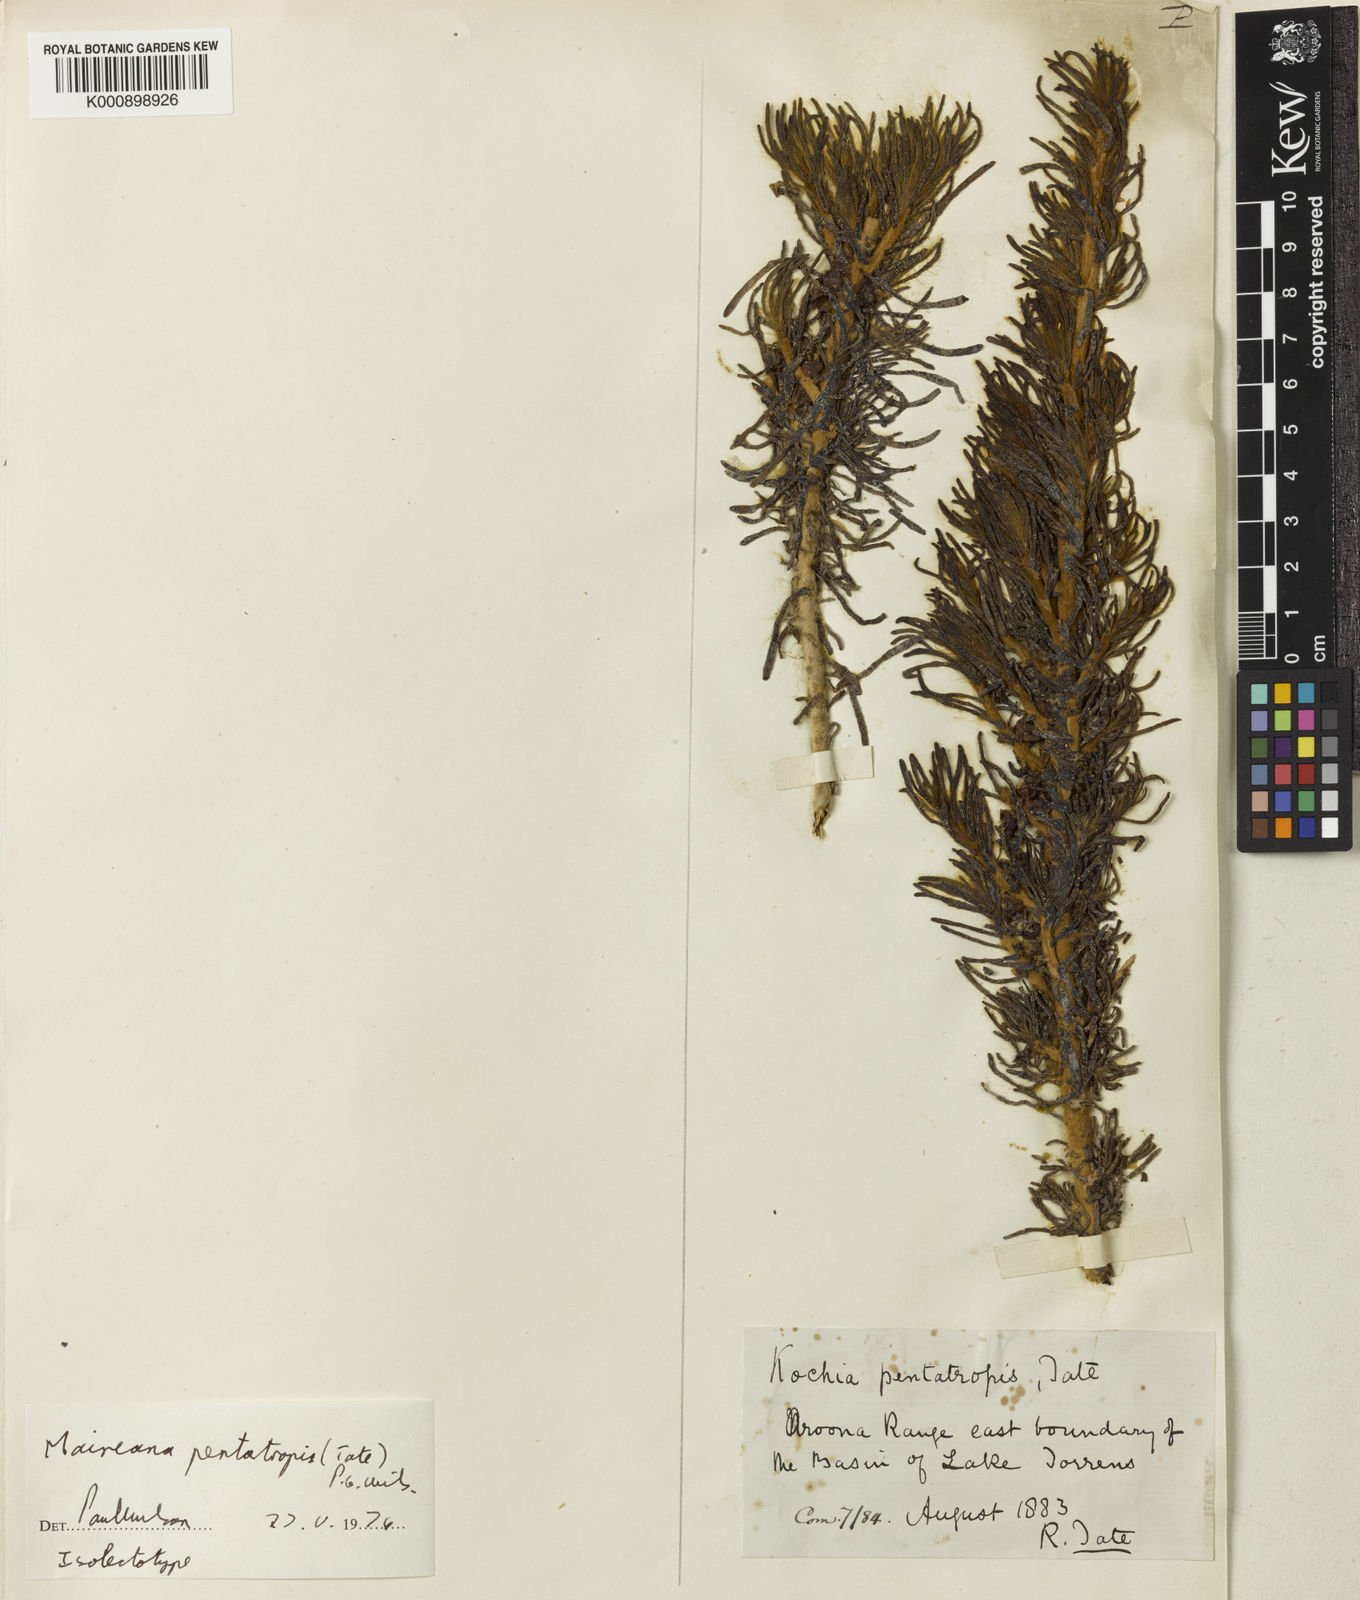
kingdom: Plantae
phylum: Tracheophyta
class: Magnoliopsida
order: Caryophyllales
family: Amaranthaceae
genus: Maireana
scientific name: Maireana
